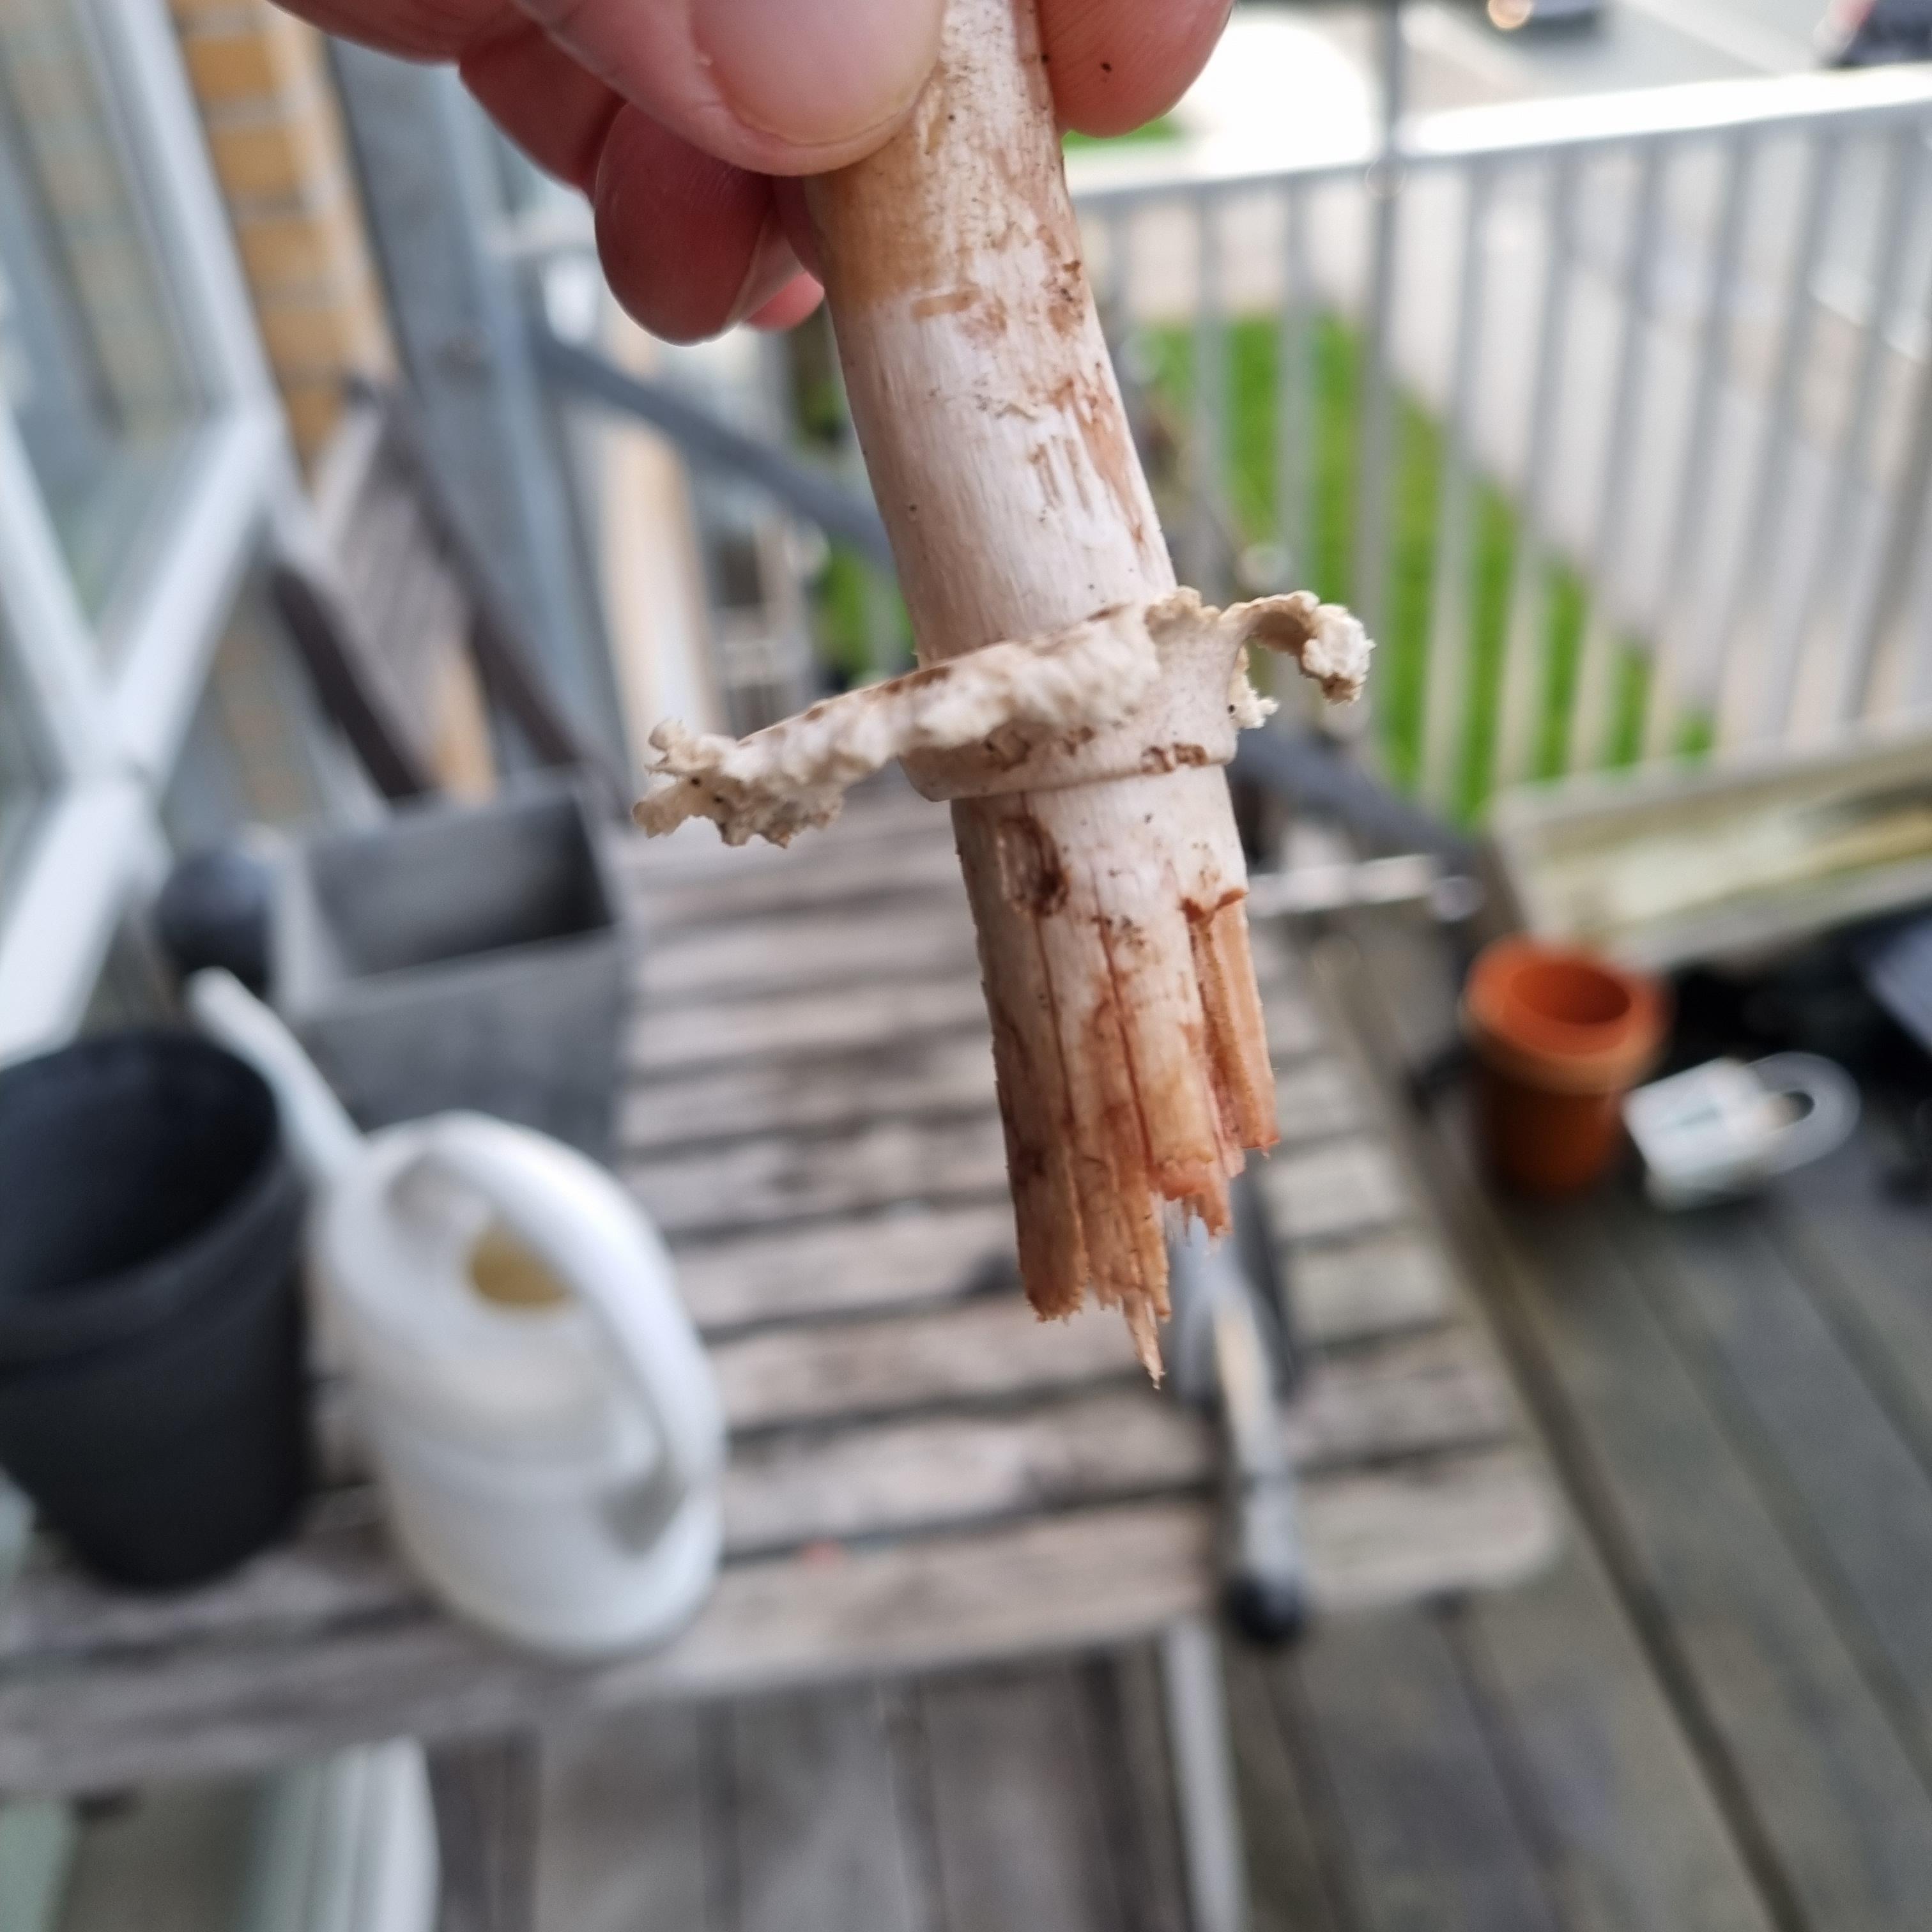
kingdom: Fungi
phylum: Basidiomycota
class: Agaricomycetes
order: Agaricales
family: Agaricaceae
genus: Chlorophyllum
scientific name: Chlorophyllum brunneum
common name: giftig rabarberhat
